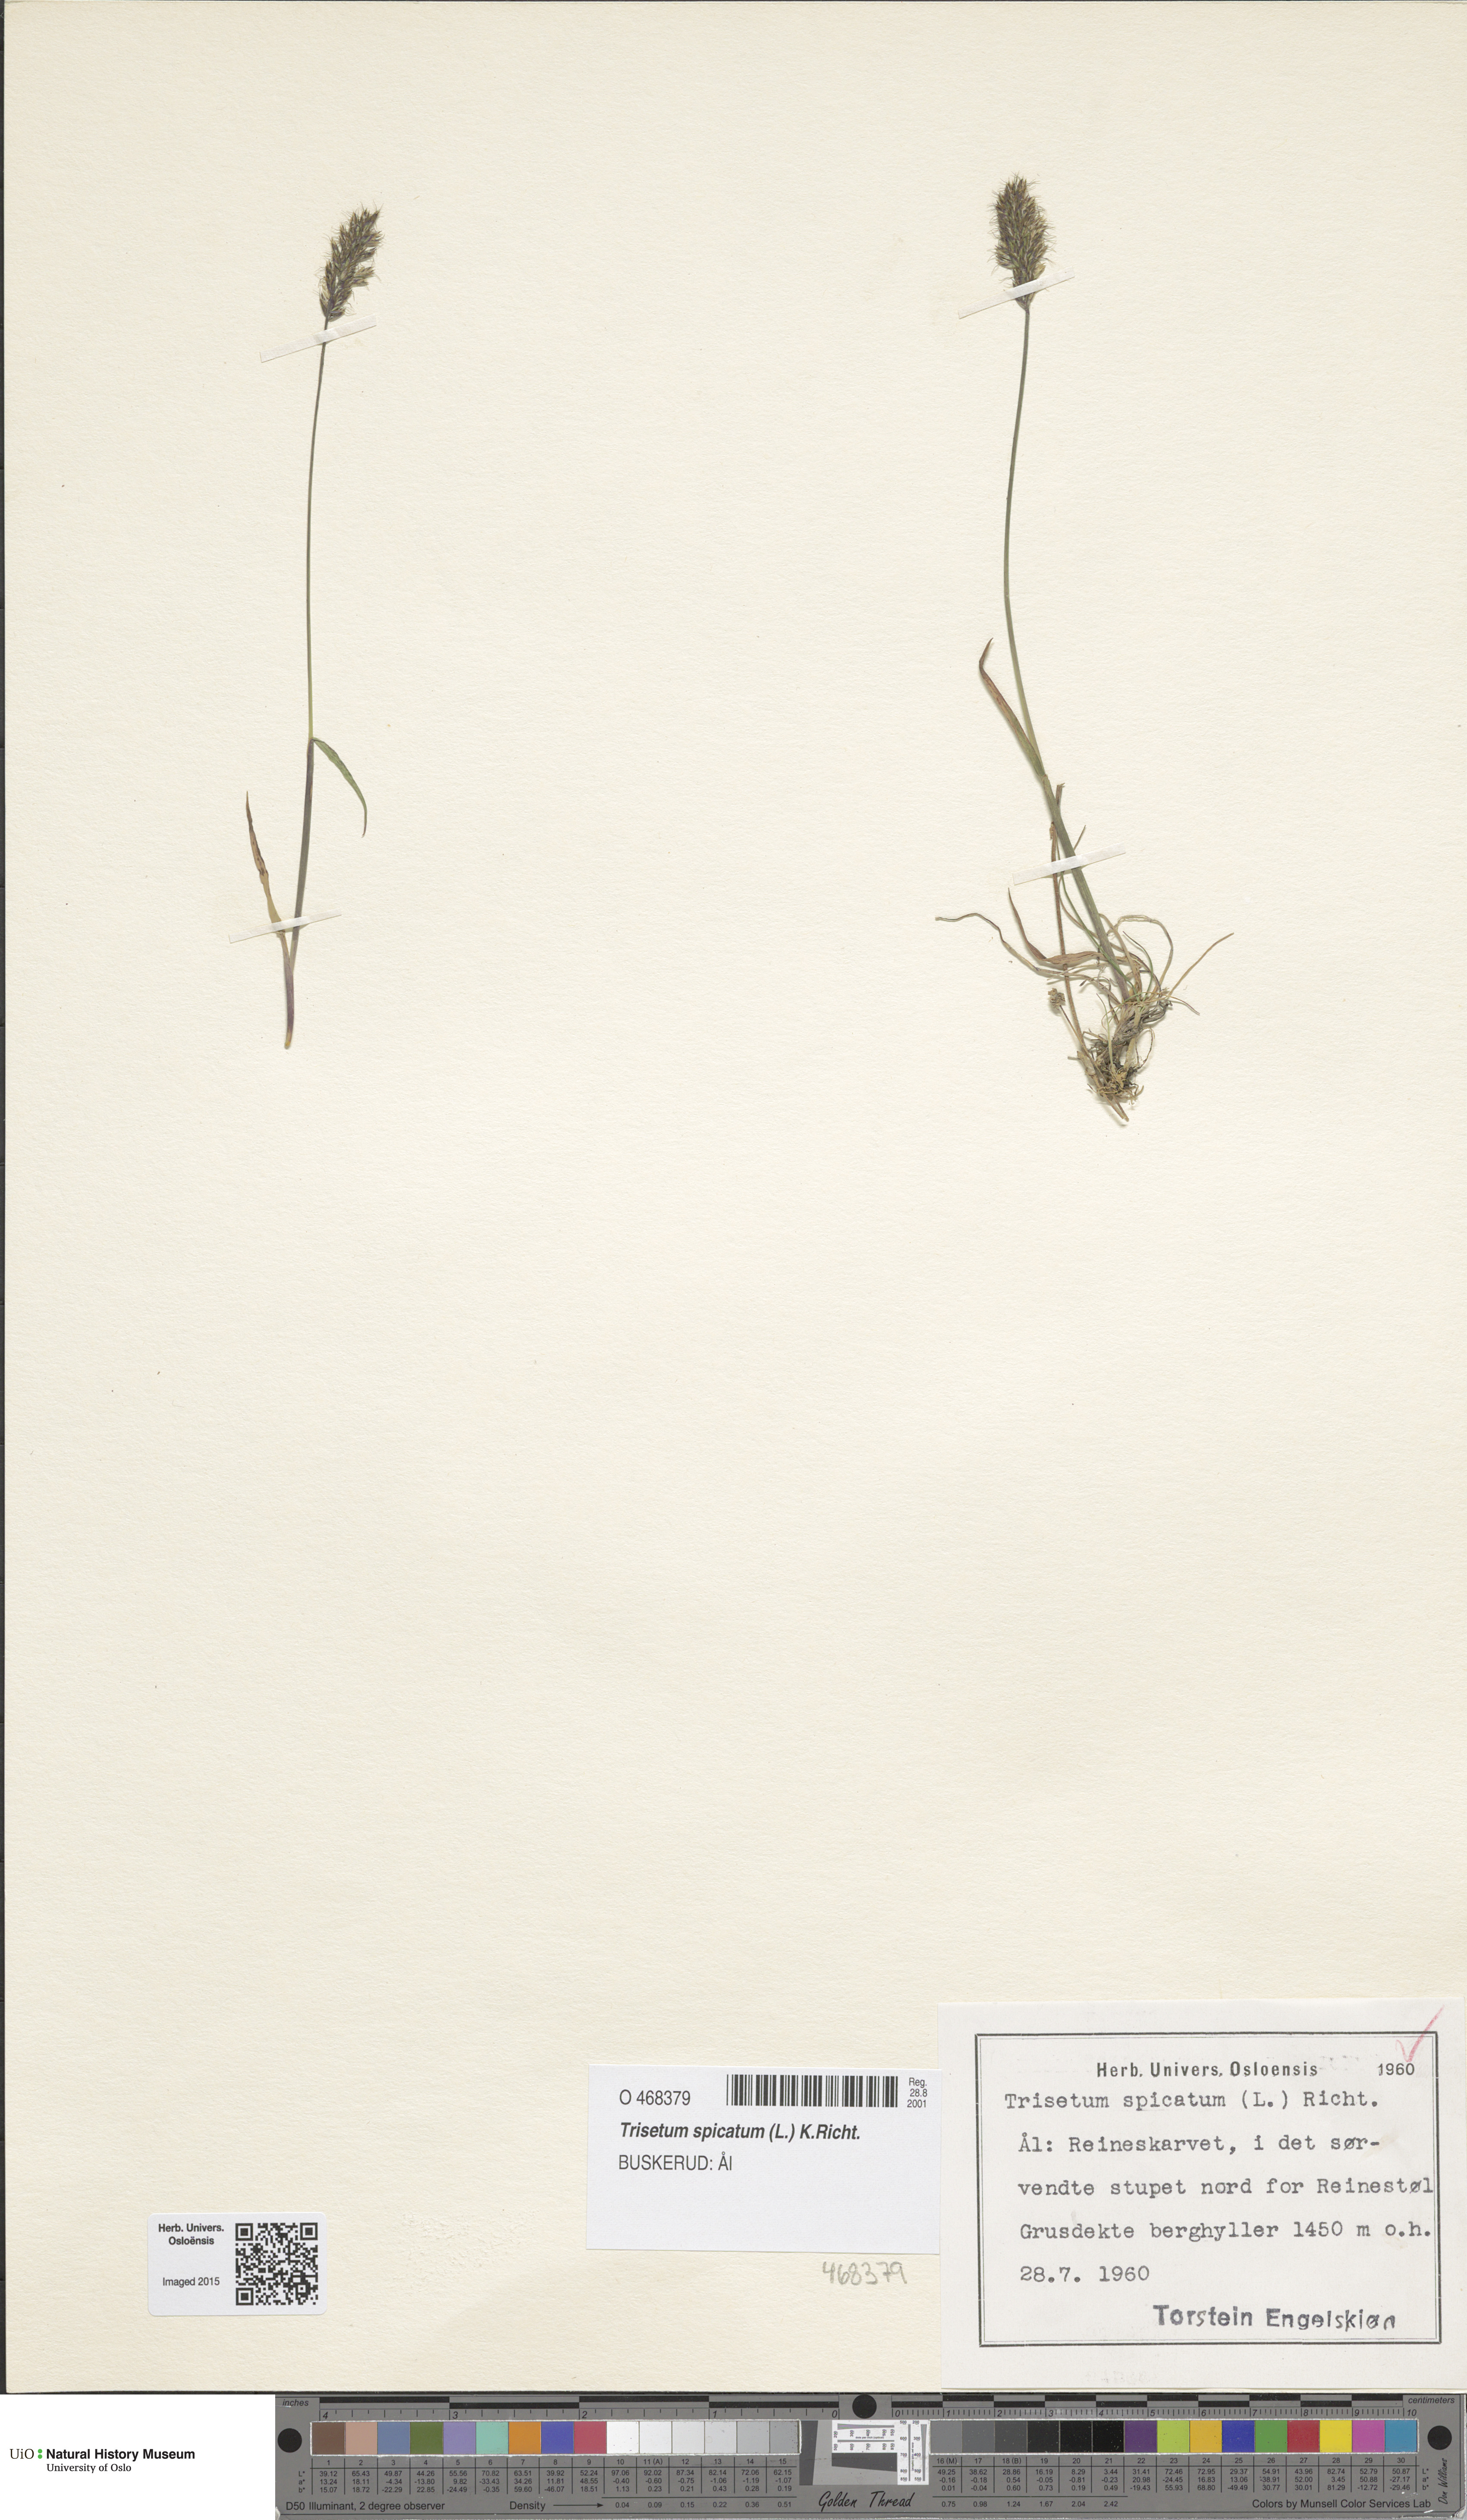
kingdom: Plantae
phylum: Tracheophyta
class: Liliopsida
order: Poales
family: Poaceae
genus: Koeleria
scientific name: Koeleria spicata
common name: Mountain trisetum
